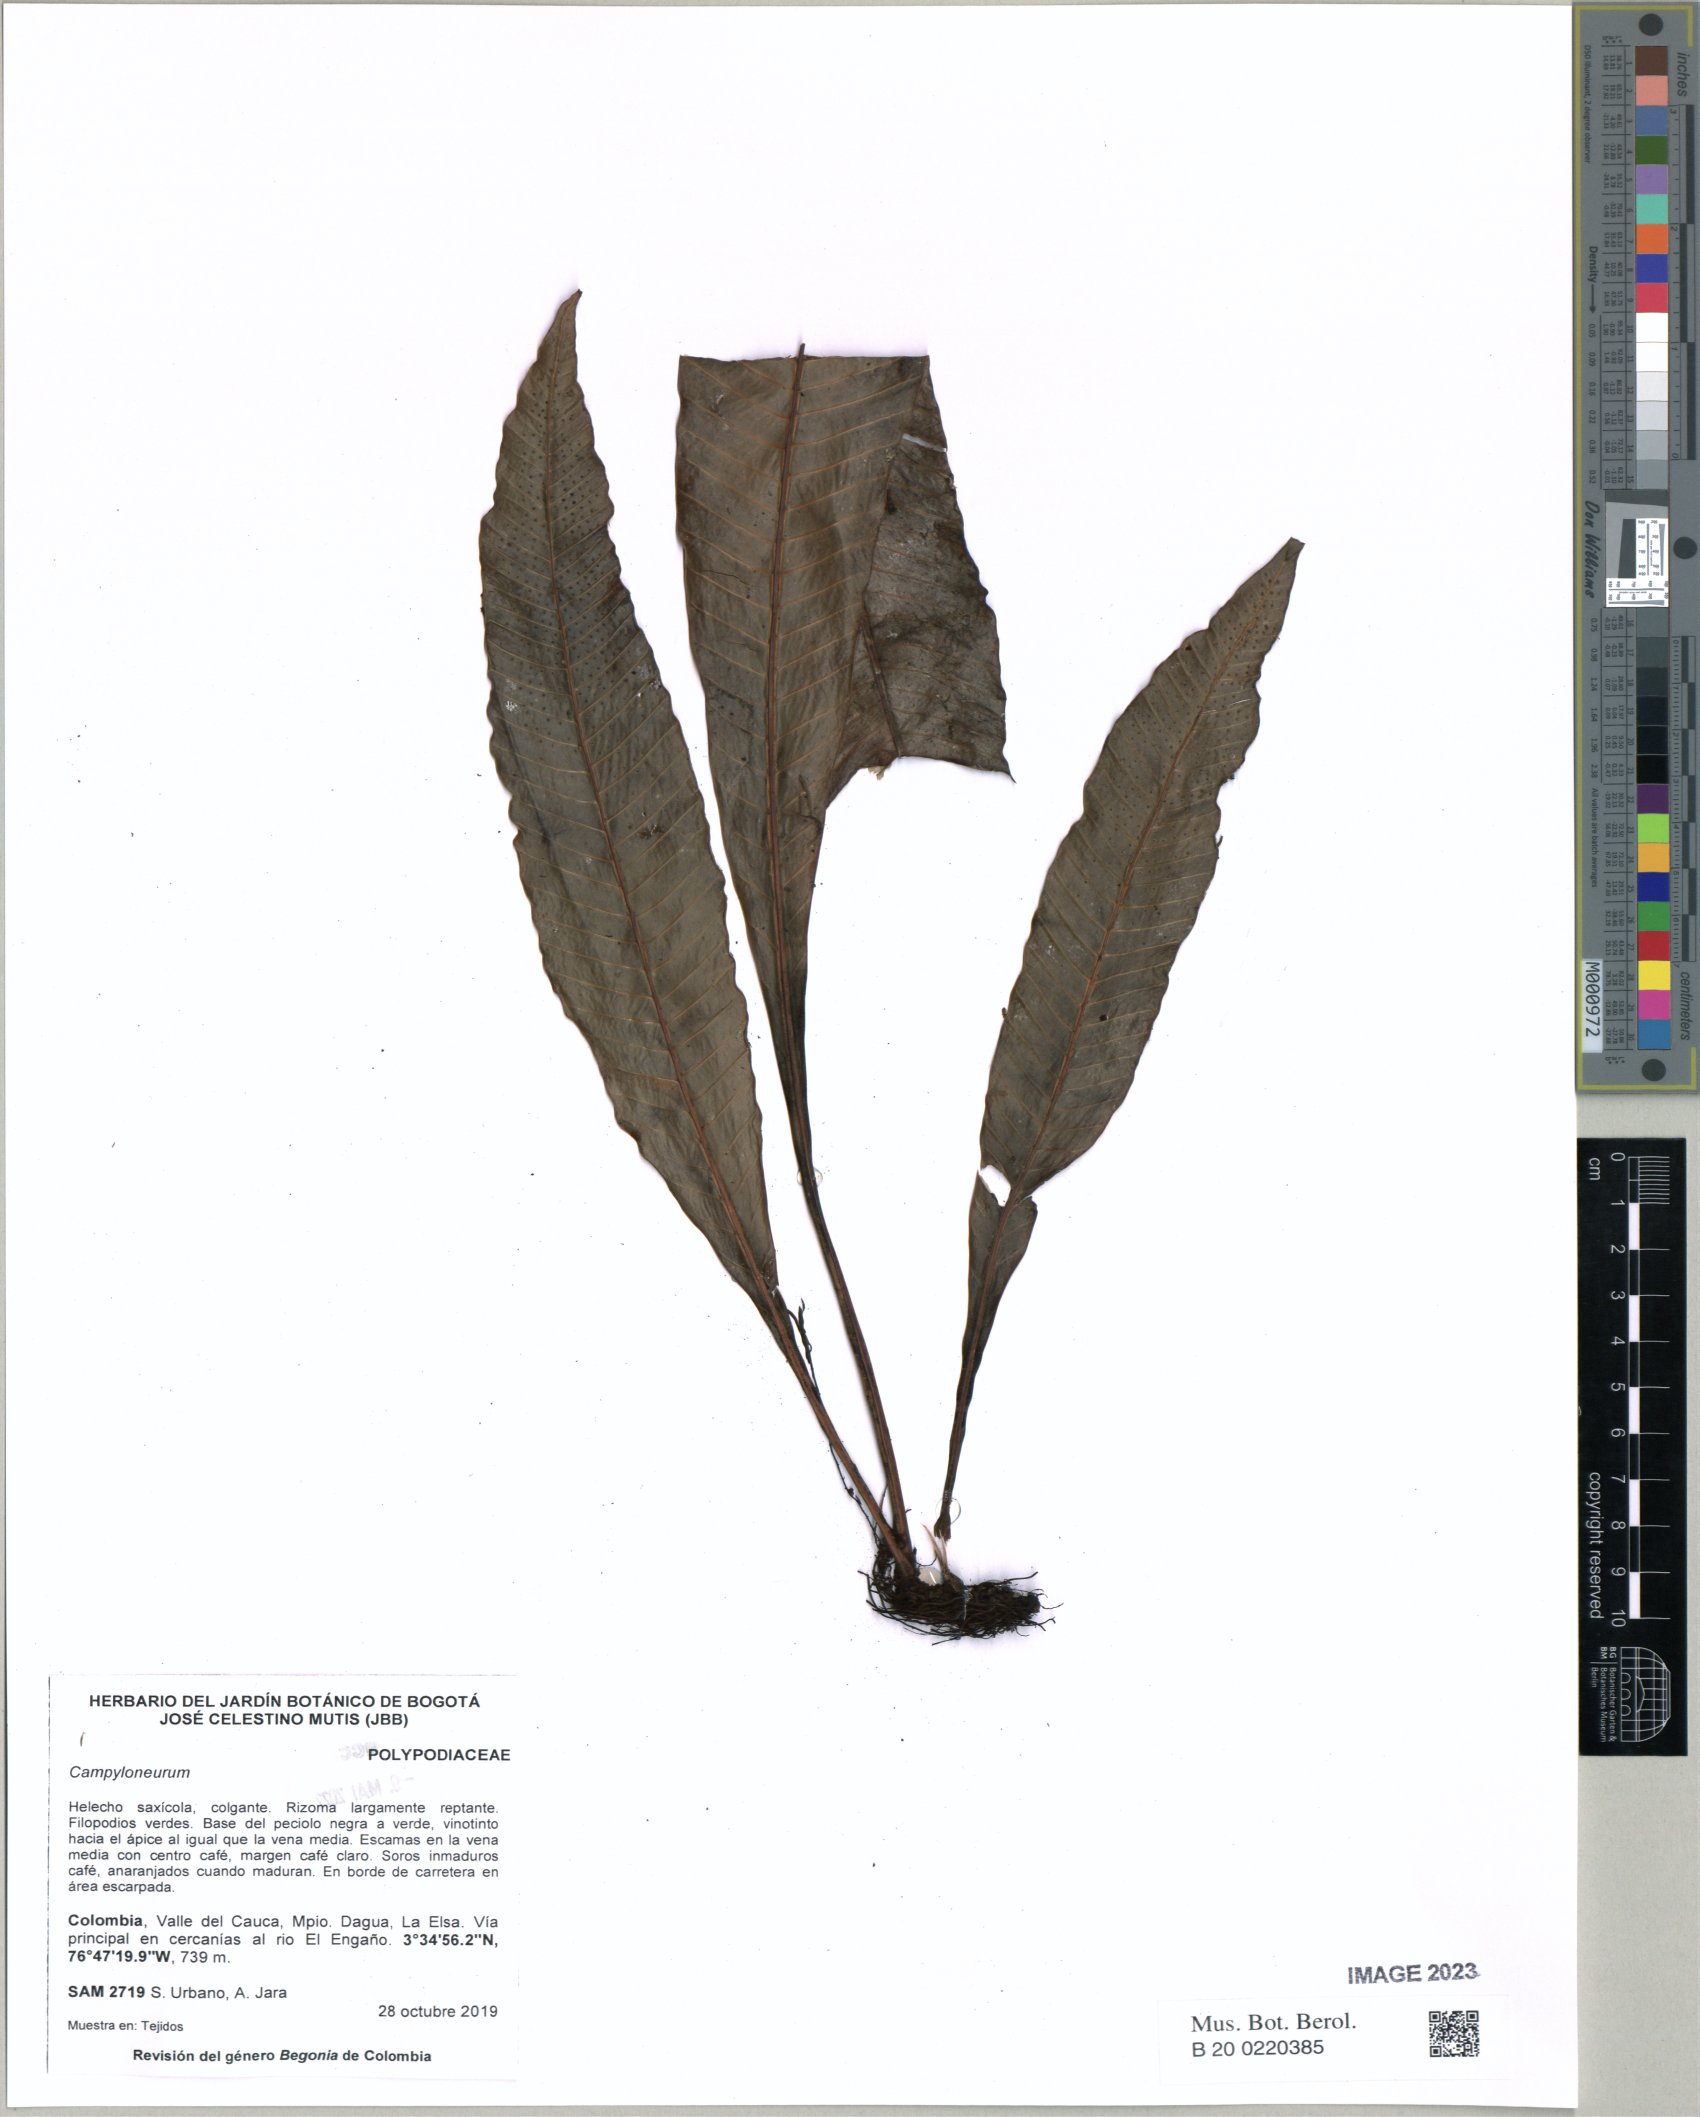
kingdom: Plantae
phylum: Tracheophyta
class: Polypodiopsida
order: Polypodiales
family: Polypodiaceae
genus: Campyloneurum
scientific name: Campyloneurum
